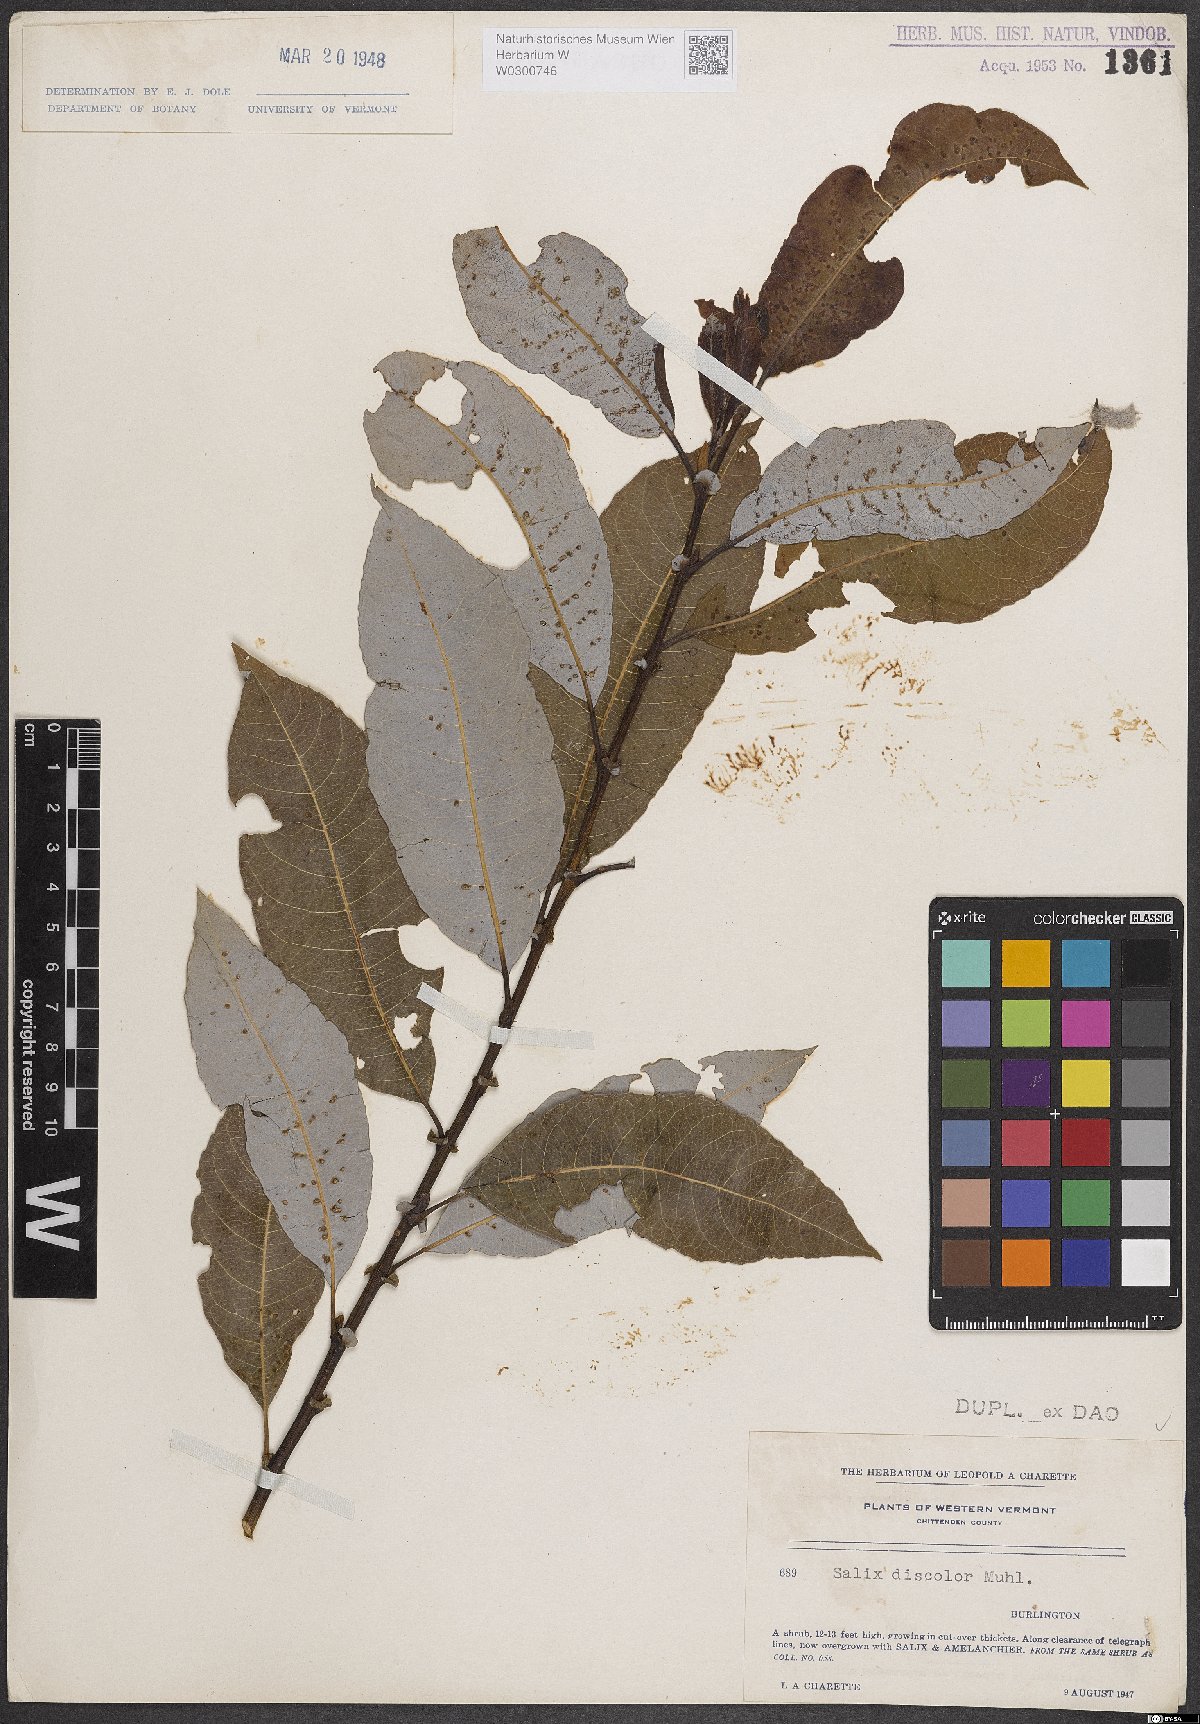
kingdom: Plantae
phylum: Tracheophyta
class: Magnoliopsida
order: Malpighiales
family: Salicaceae
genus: Salix
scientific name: Salix discolor
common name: Glaucous willow
